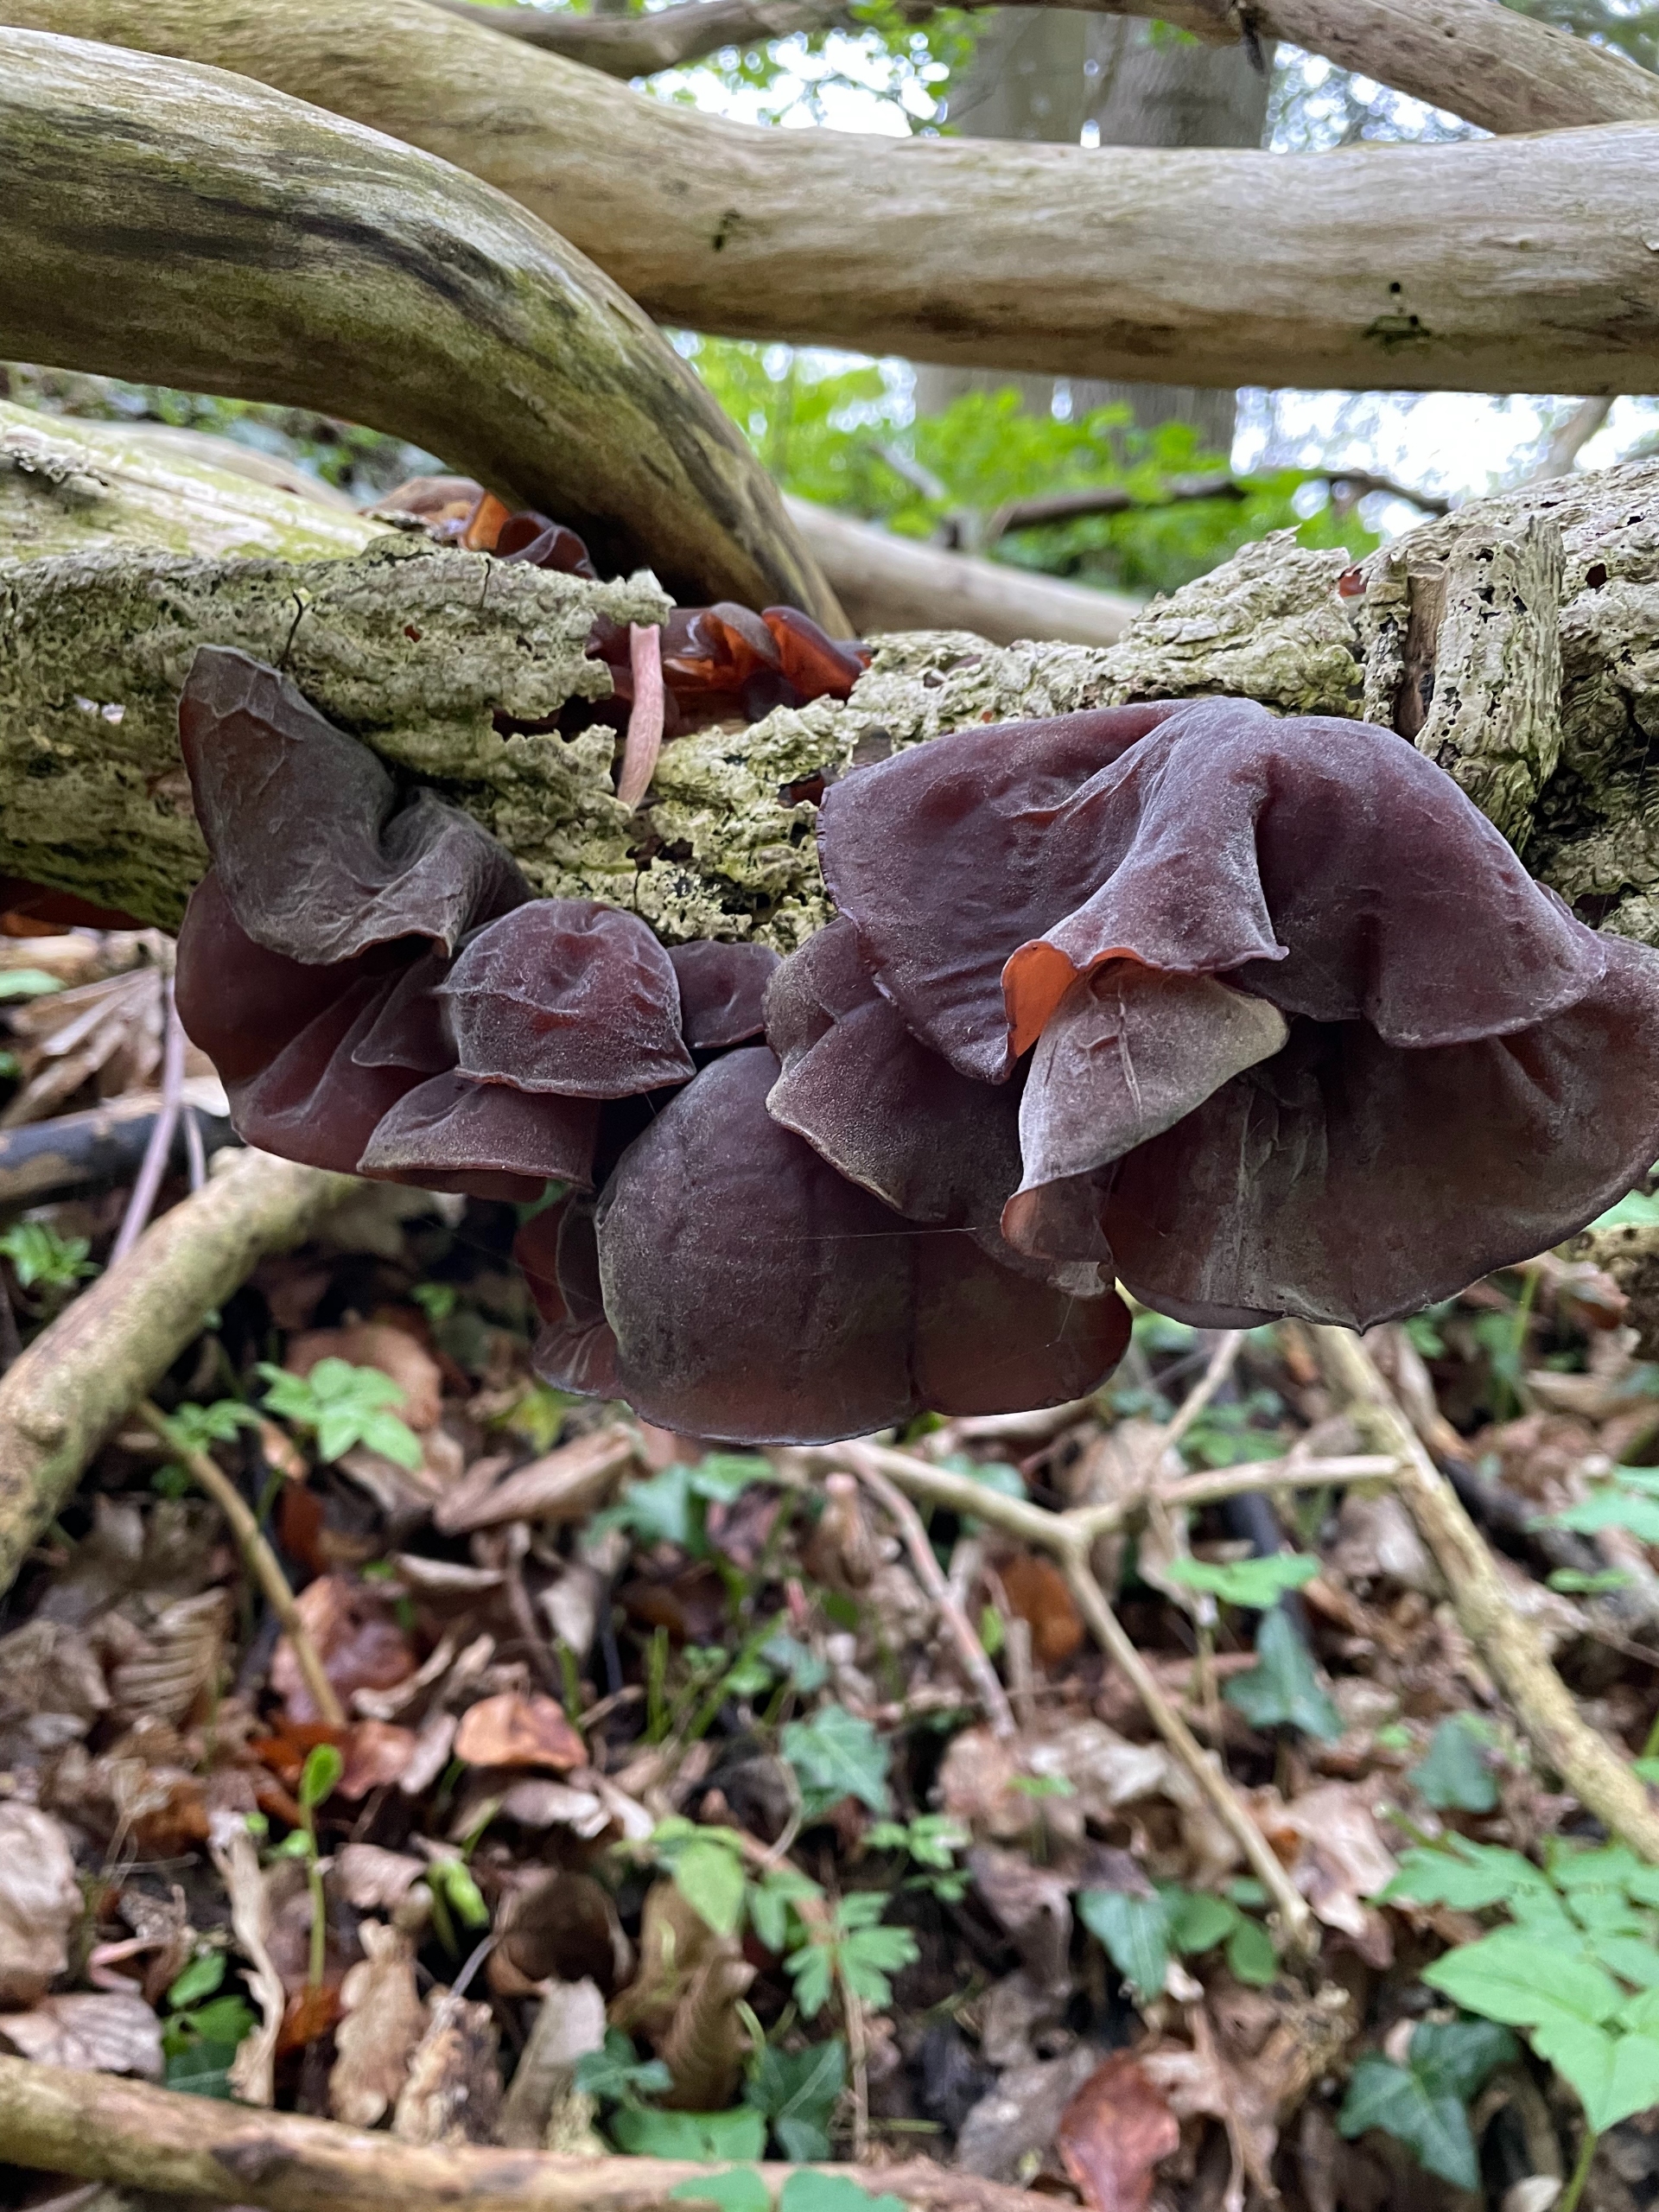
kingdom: Fungi
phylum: Basidiomycota
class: Agaricomycetes
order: Auriculariales
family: Auriculariaceae
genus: Auricularia
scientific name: Auricularia auricula-judae
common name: Almindelig judasøre
